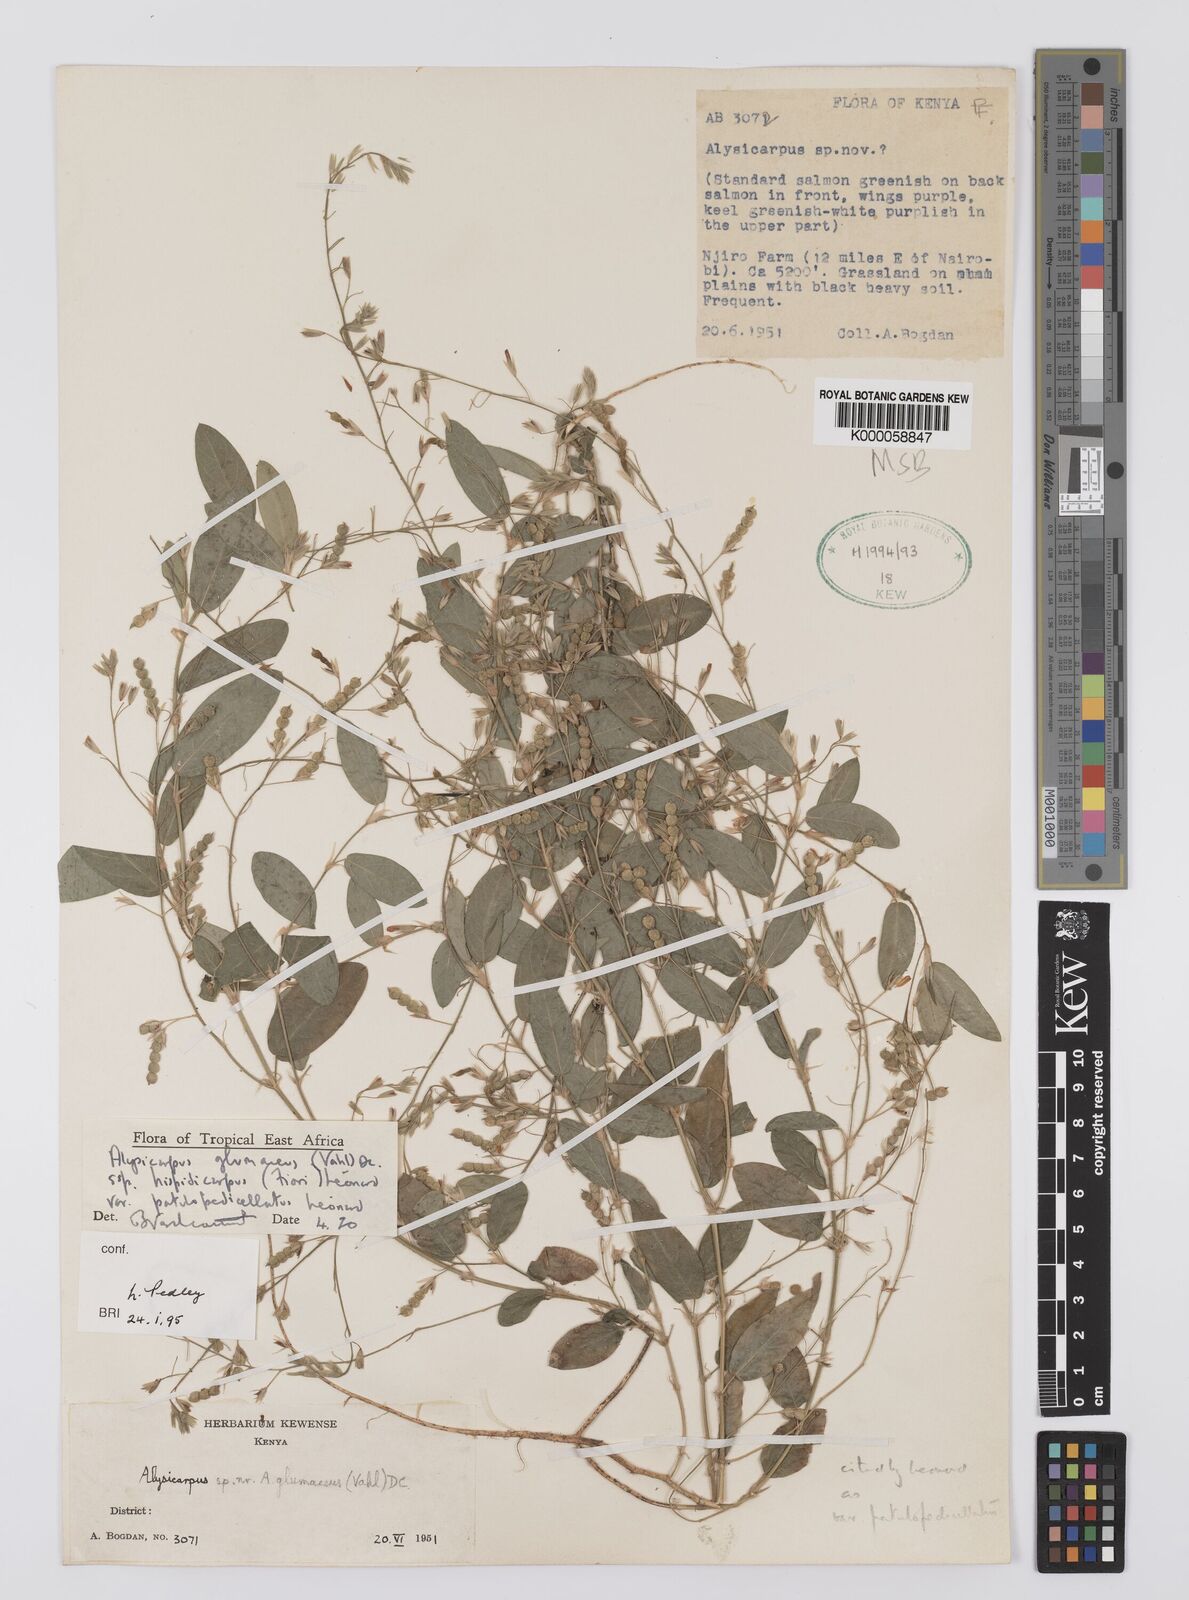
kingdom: Plantae
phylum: Tracheophyta
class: Magnoliopsida
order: Fabales
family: Fabaceae
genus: Alysicarpus
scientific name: Alysicarpus glumaceus
